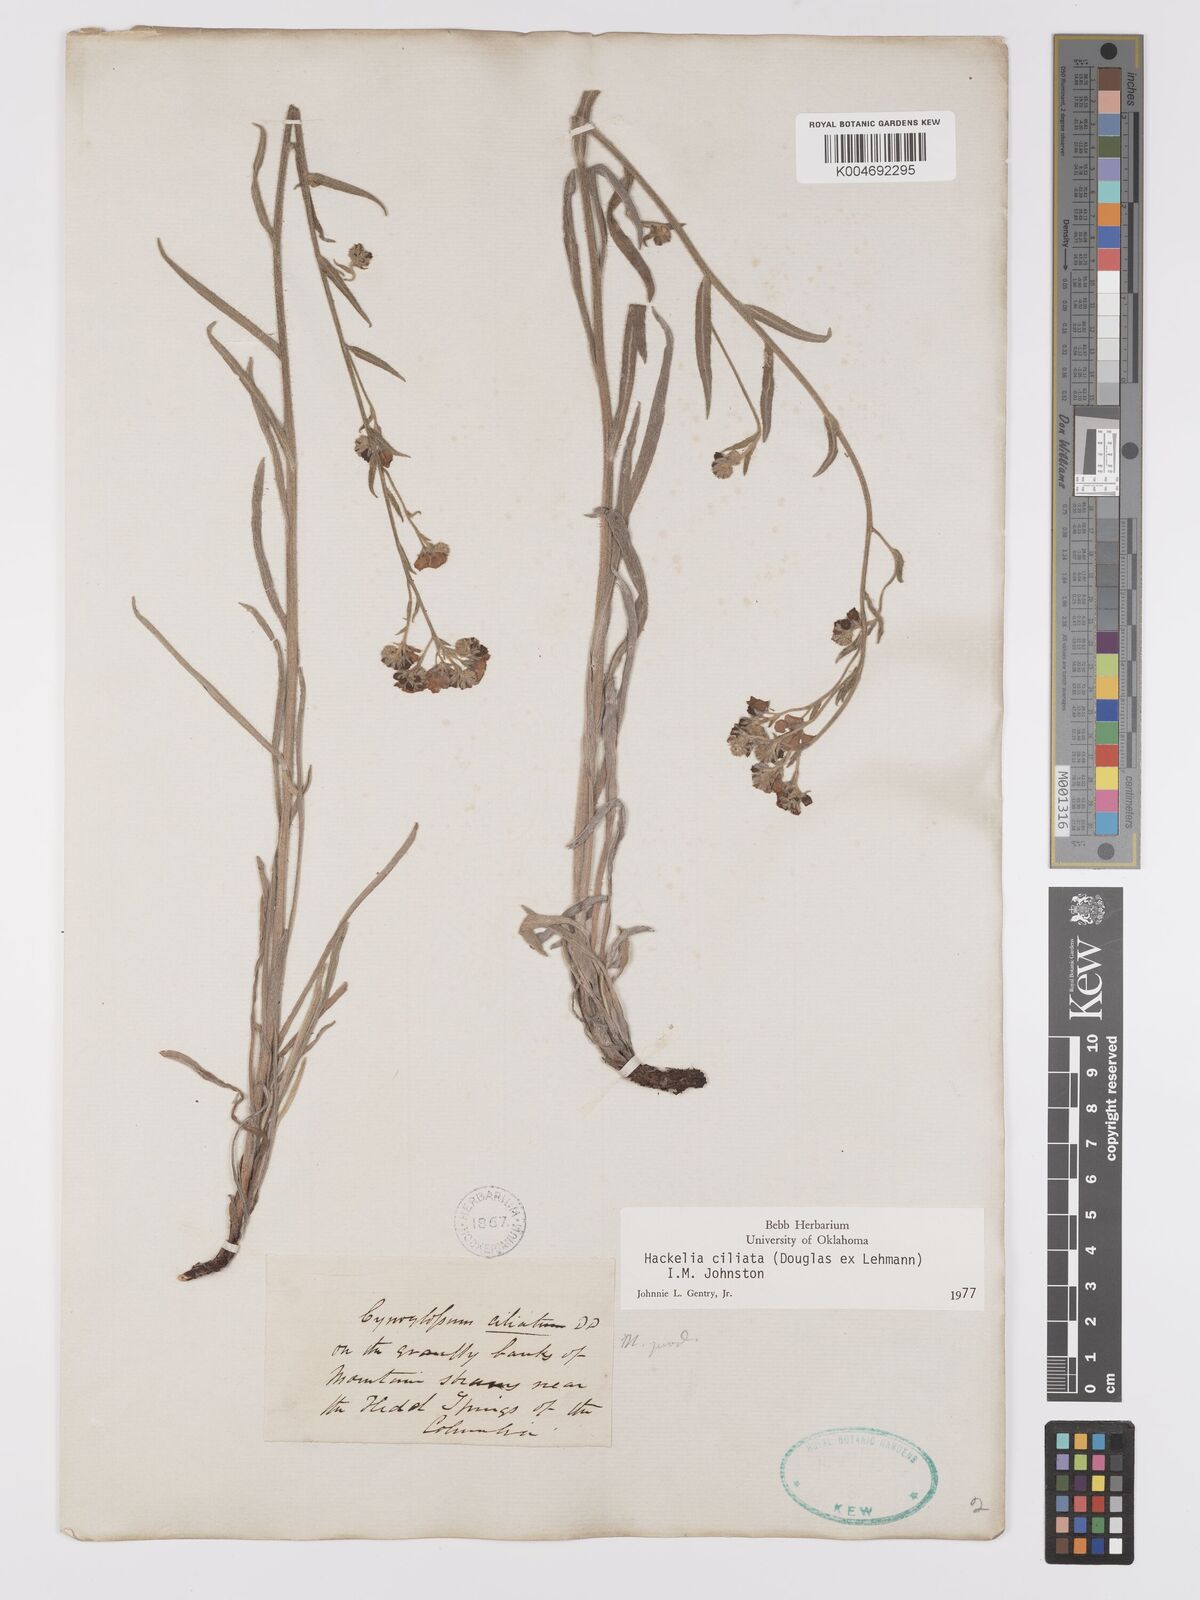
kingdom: Plantae
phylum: Tracheophyta
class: Magnoliopsida
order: Boraginales
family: Boraginaceae
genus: Hackelia
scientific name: Hackelia ciliata
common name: Okanagan stickseed
